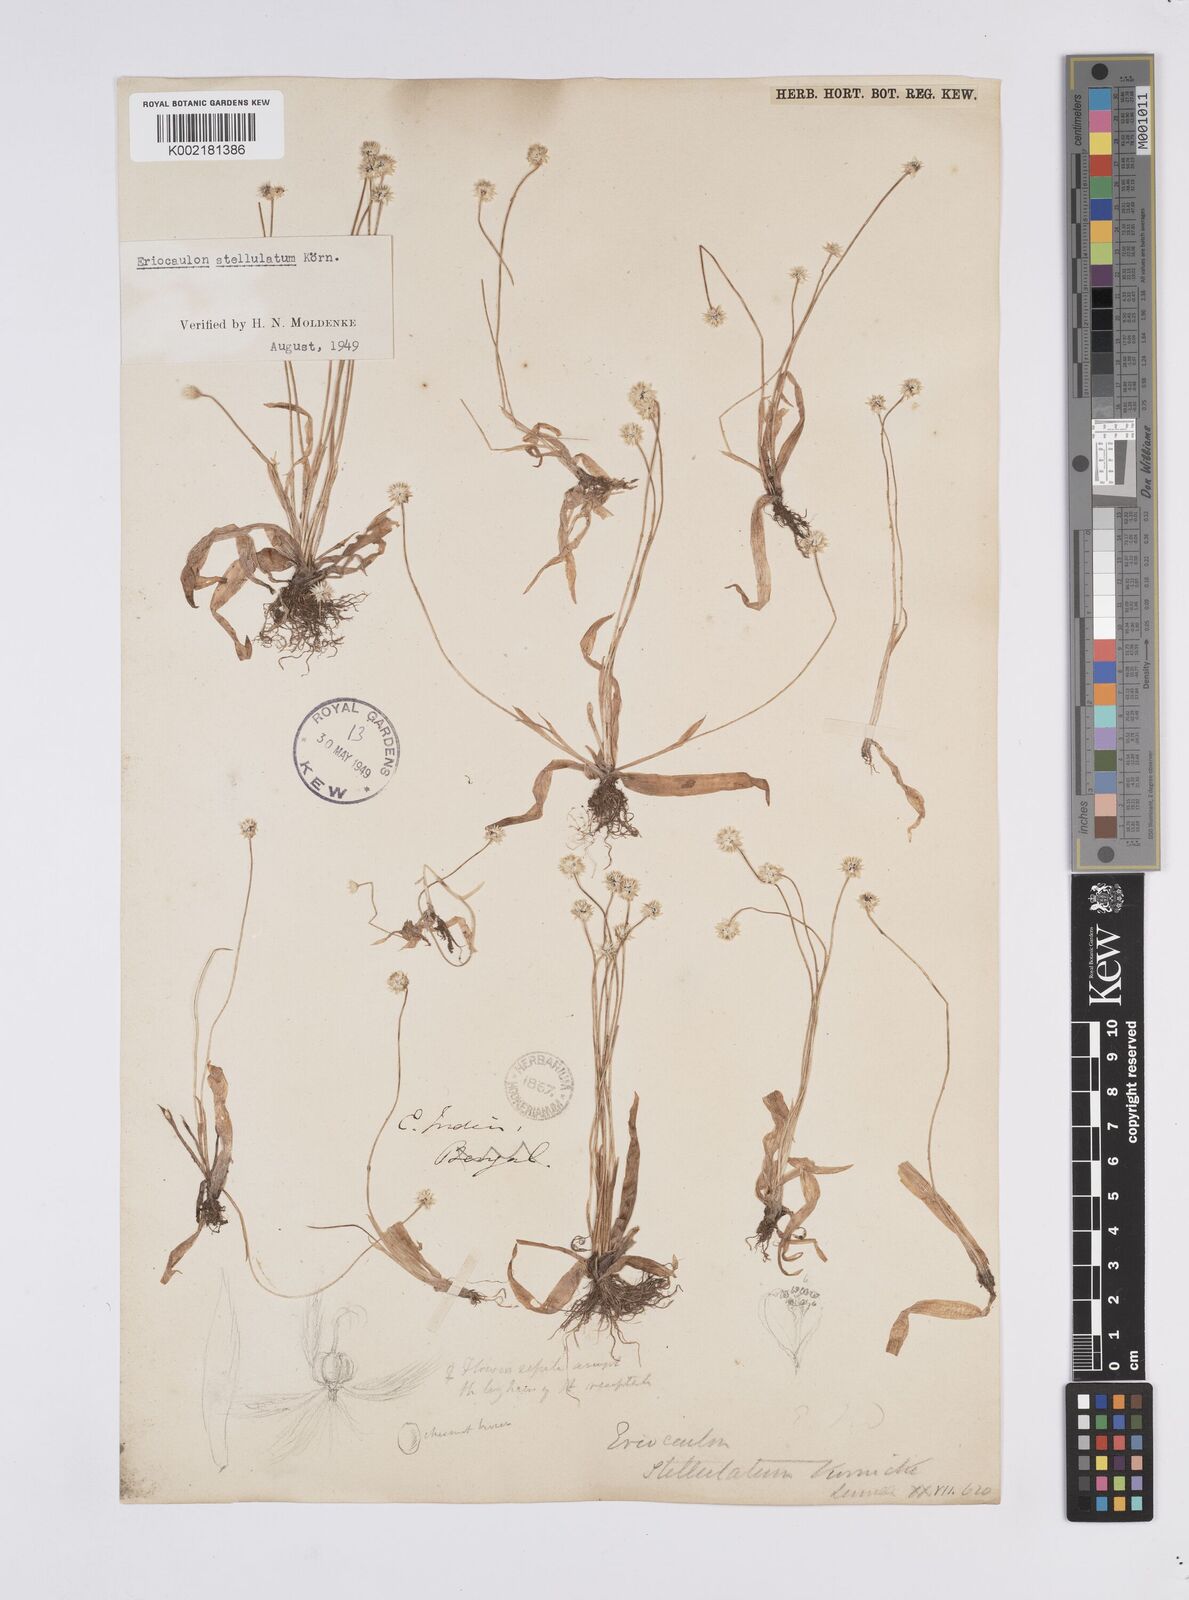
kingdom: Plantae
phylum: Tracheophyta
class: Liliopsida
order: Poales
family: Eriocaulaceae
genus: Eriocaulon
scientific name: Eriocaulon stellulatum
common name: Starry pipewort
